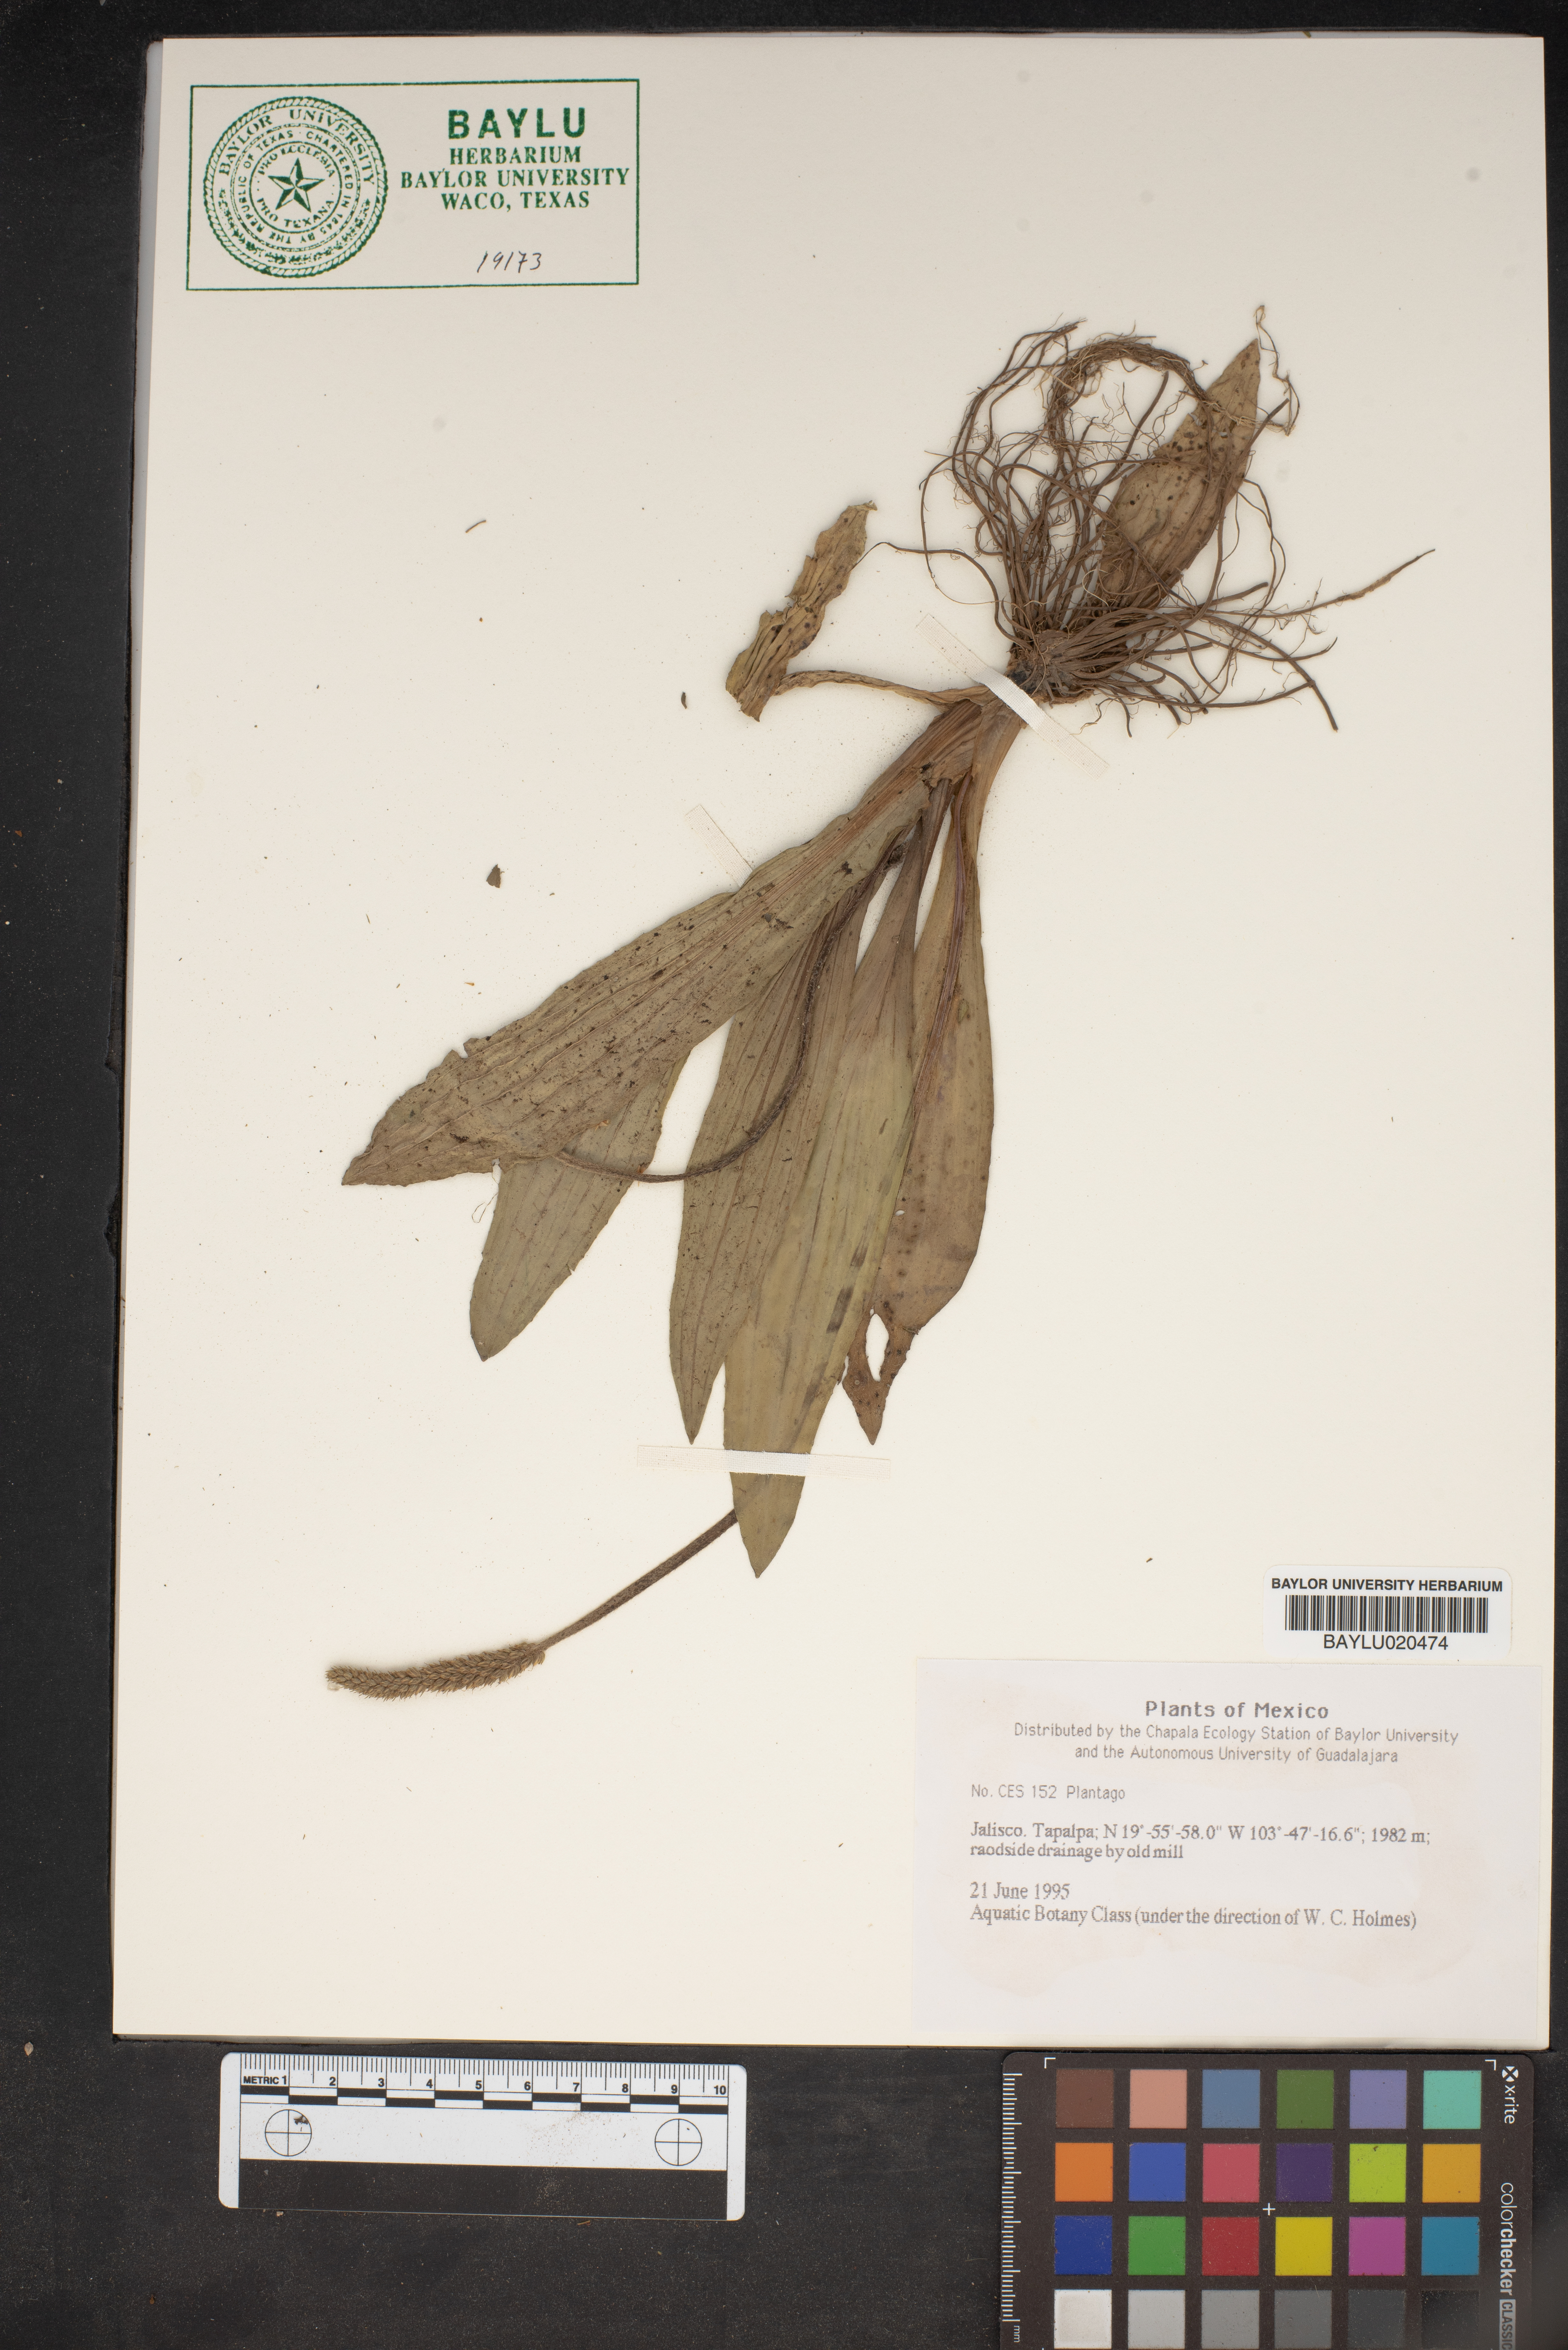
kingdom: Plantae
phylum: Tracheophyta
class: Magnoliopsida
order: Lamiales
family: Plantaginaceae
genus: Plantago
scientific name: Plantago
